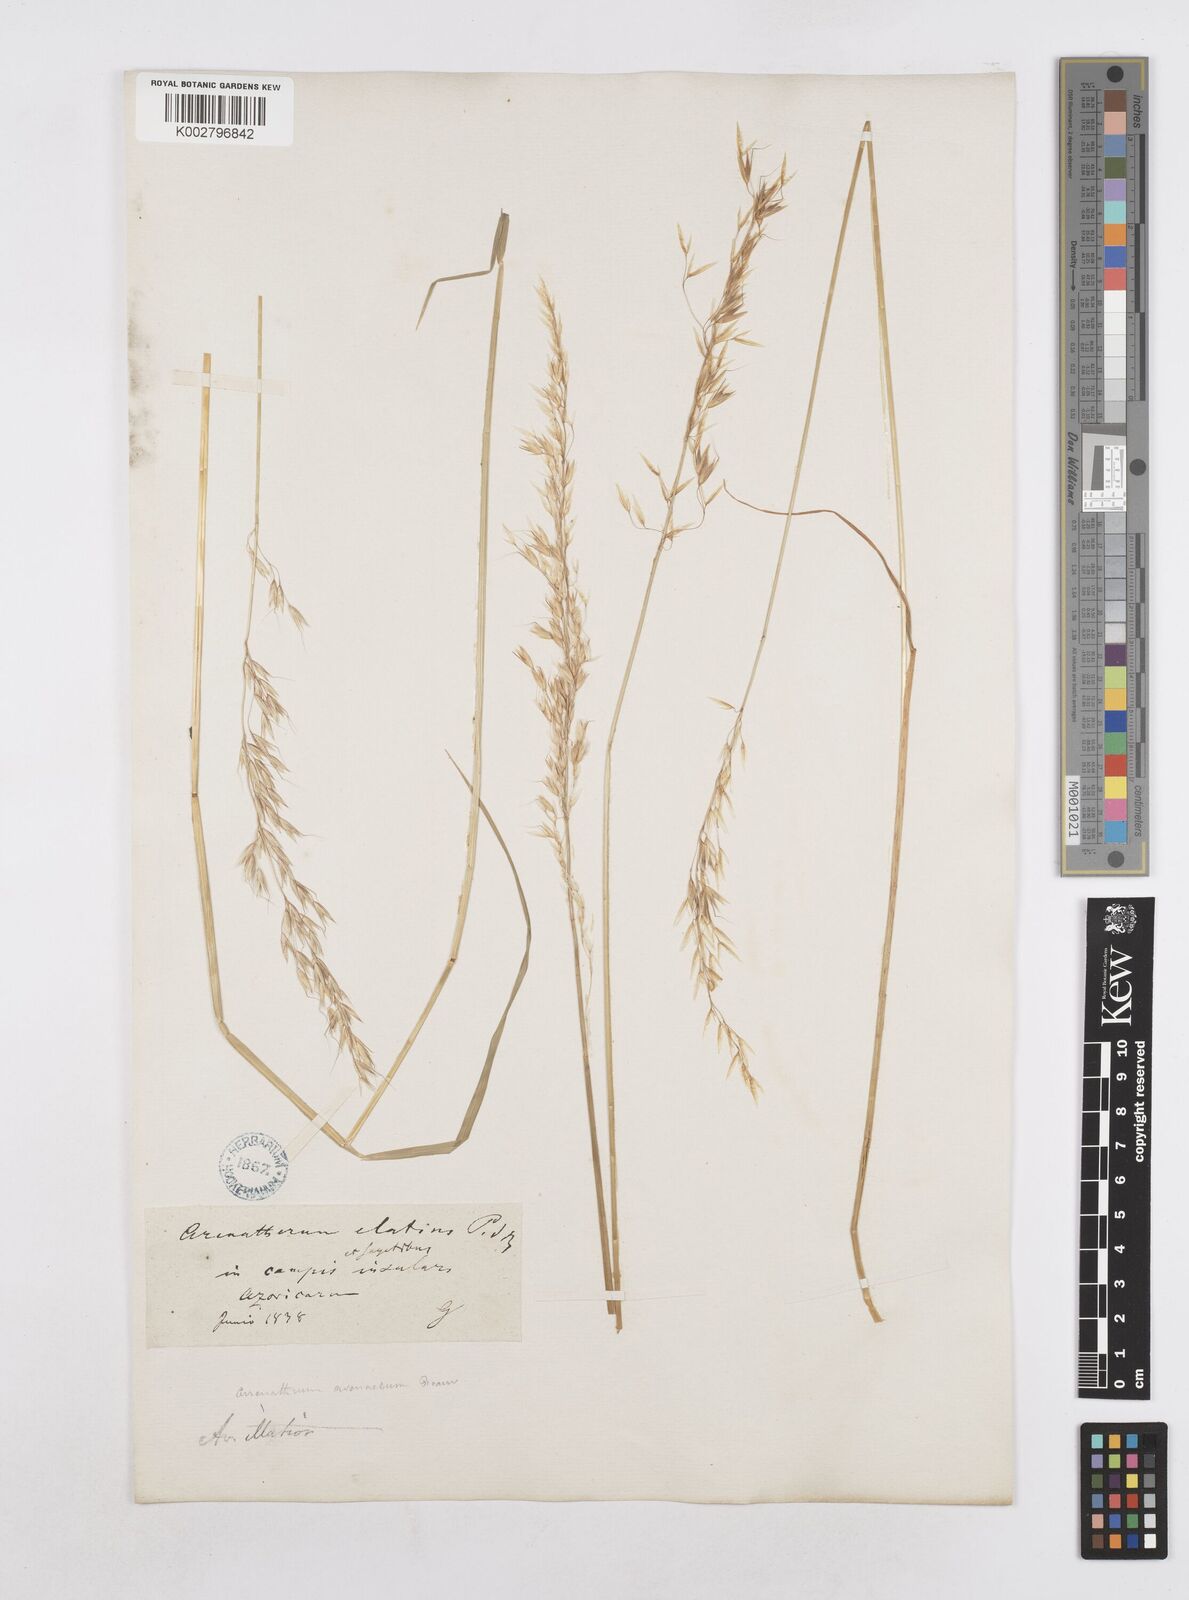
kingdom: Plantae
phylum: Tracheophyta
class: Liliopsida
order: Poales
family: Poaceae
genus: Arrhenatherum
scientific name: Arrhenatherum elatius
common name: Tall oatgrass
